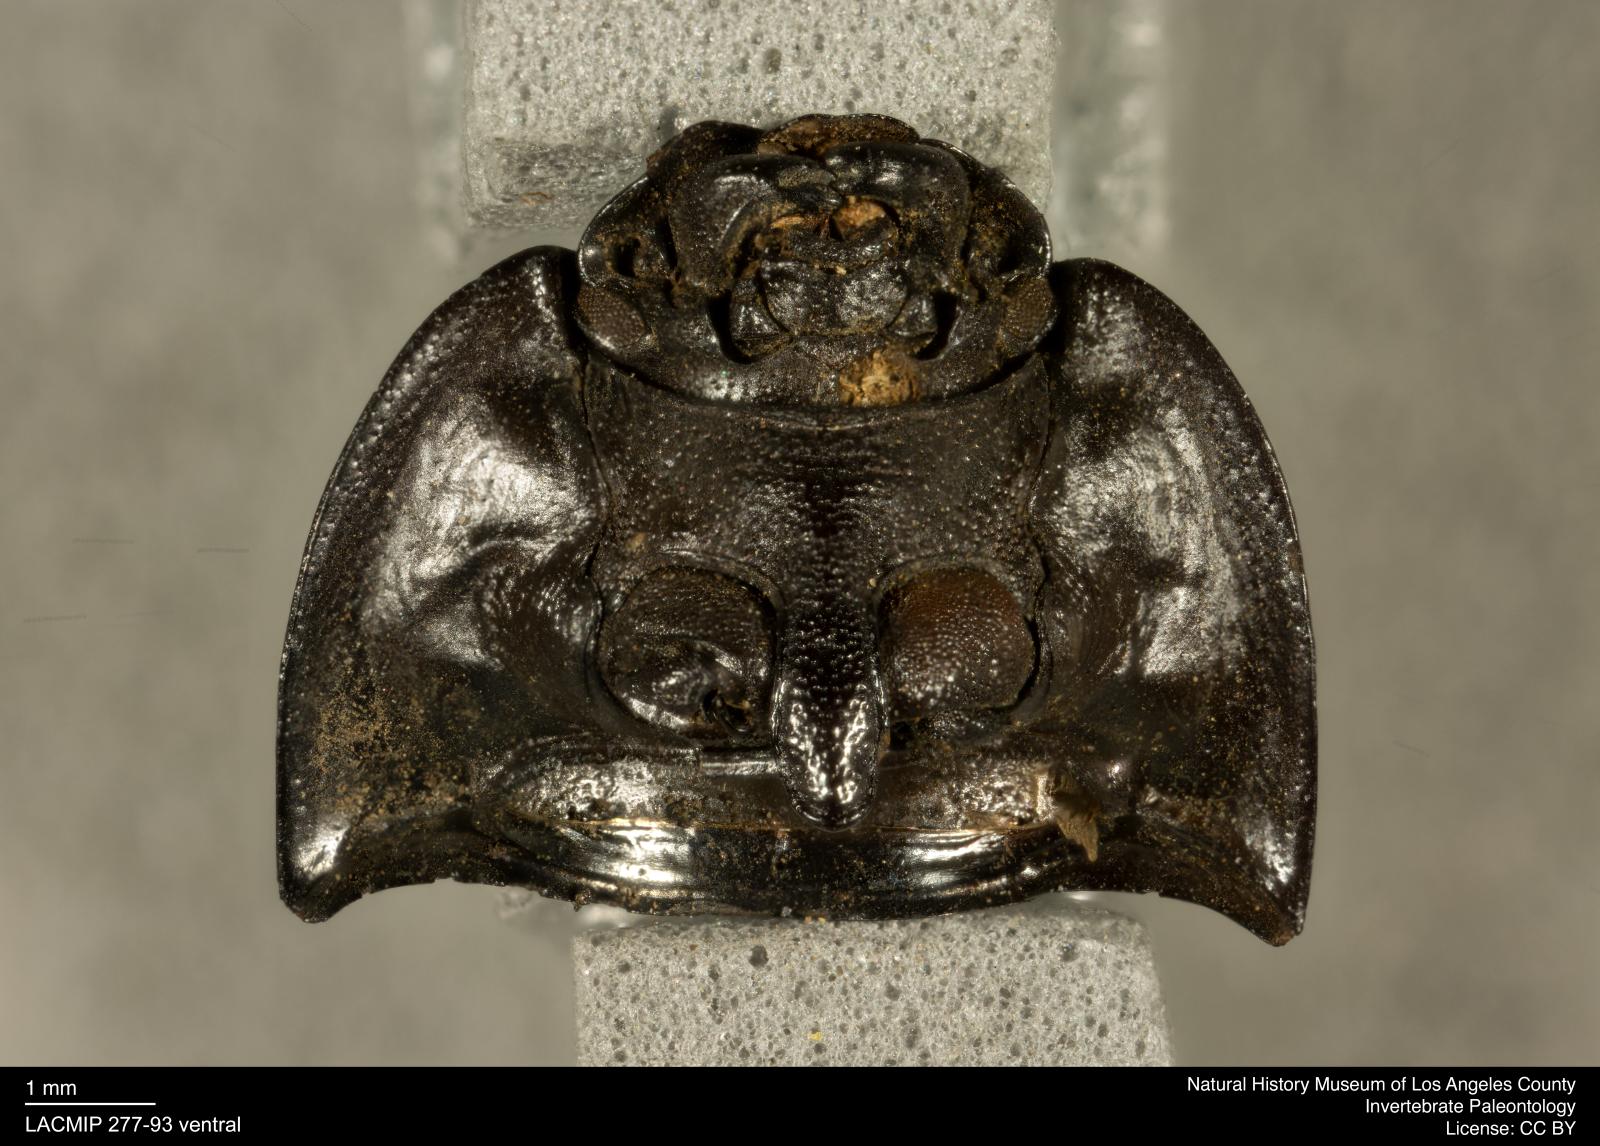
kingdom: Animalia
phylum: Arthropoda
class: Insecta
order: Coleoptera
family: Tenebrionidae
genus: Coniontis
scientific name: Coniontis abdominalis
